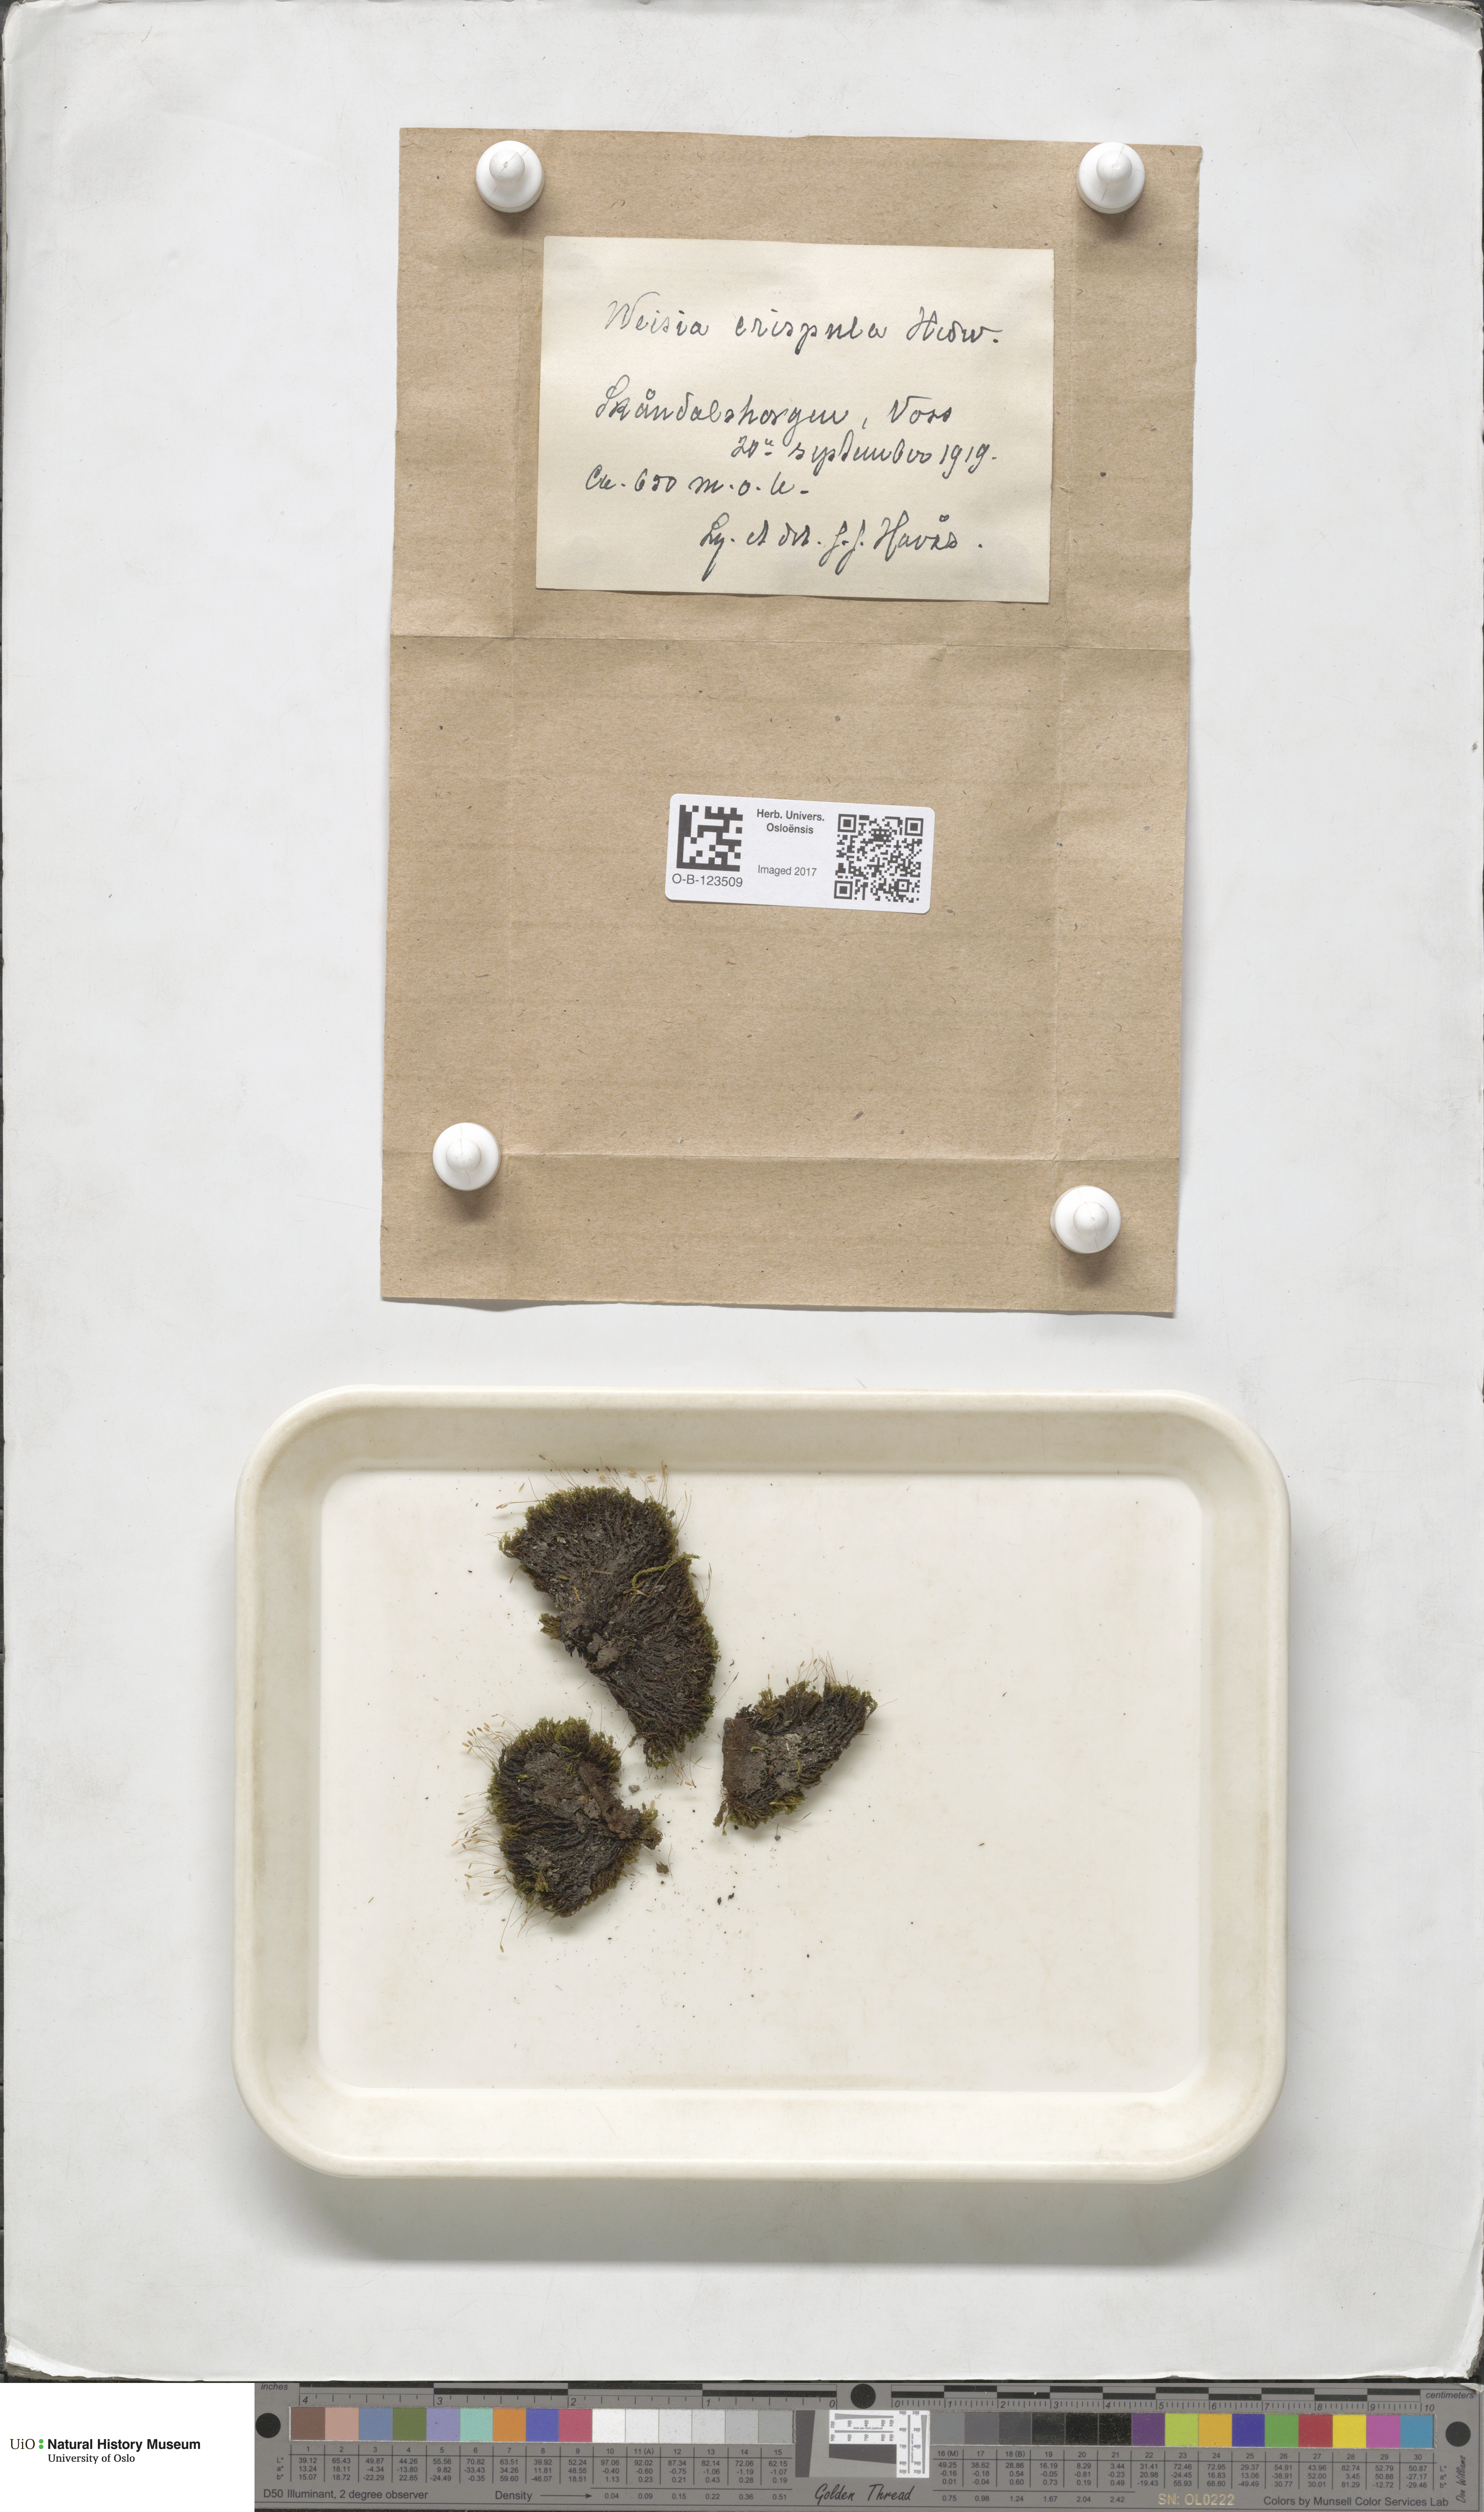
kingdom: Plantae
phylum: Bryophyta
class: Bryopsida
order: Scouleriales
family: Hymenolomataceae
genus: Hymenoloma
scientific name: Hymenoloma crispulum
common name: Mountain pincushion
